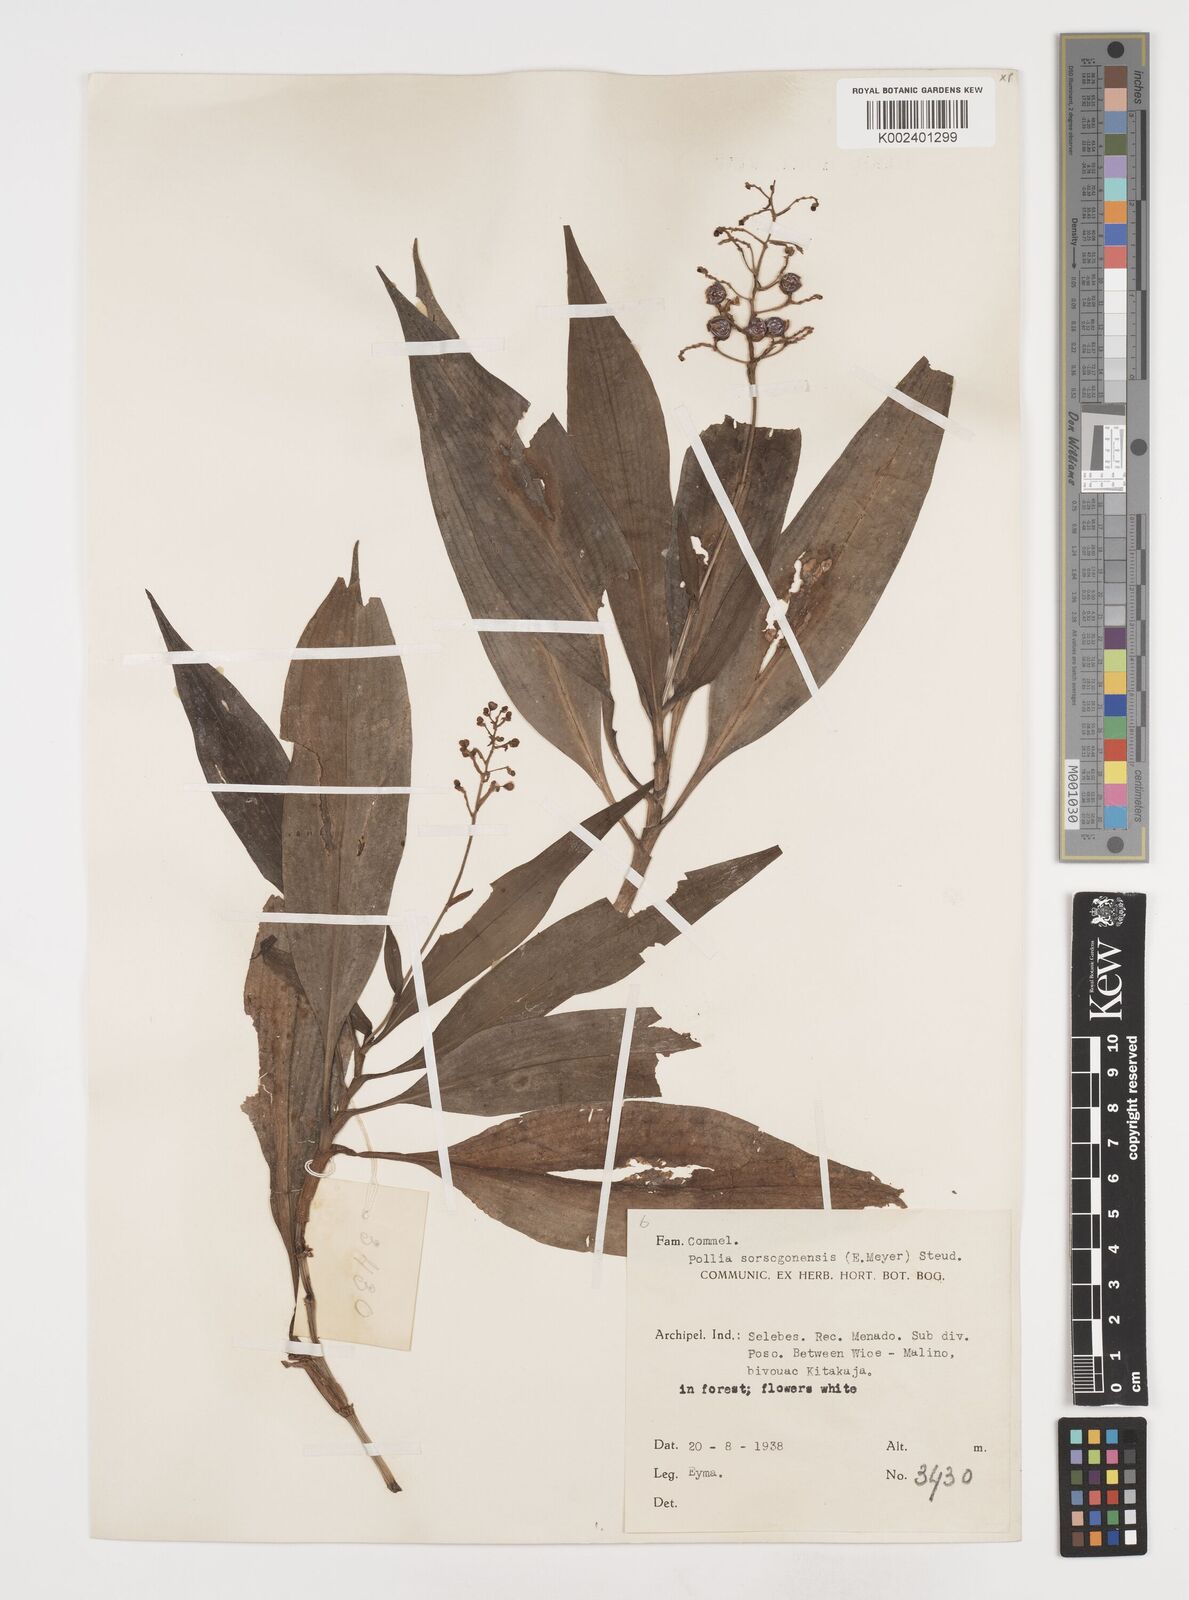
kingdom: Plantae
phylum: Tracheophyta
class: Liliopsida
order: Commelinales
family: Commelinaceae
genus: Pollia
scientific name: Pollia secundiflora
